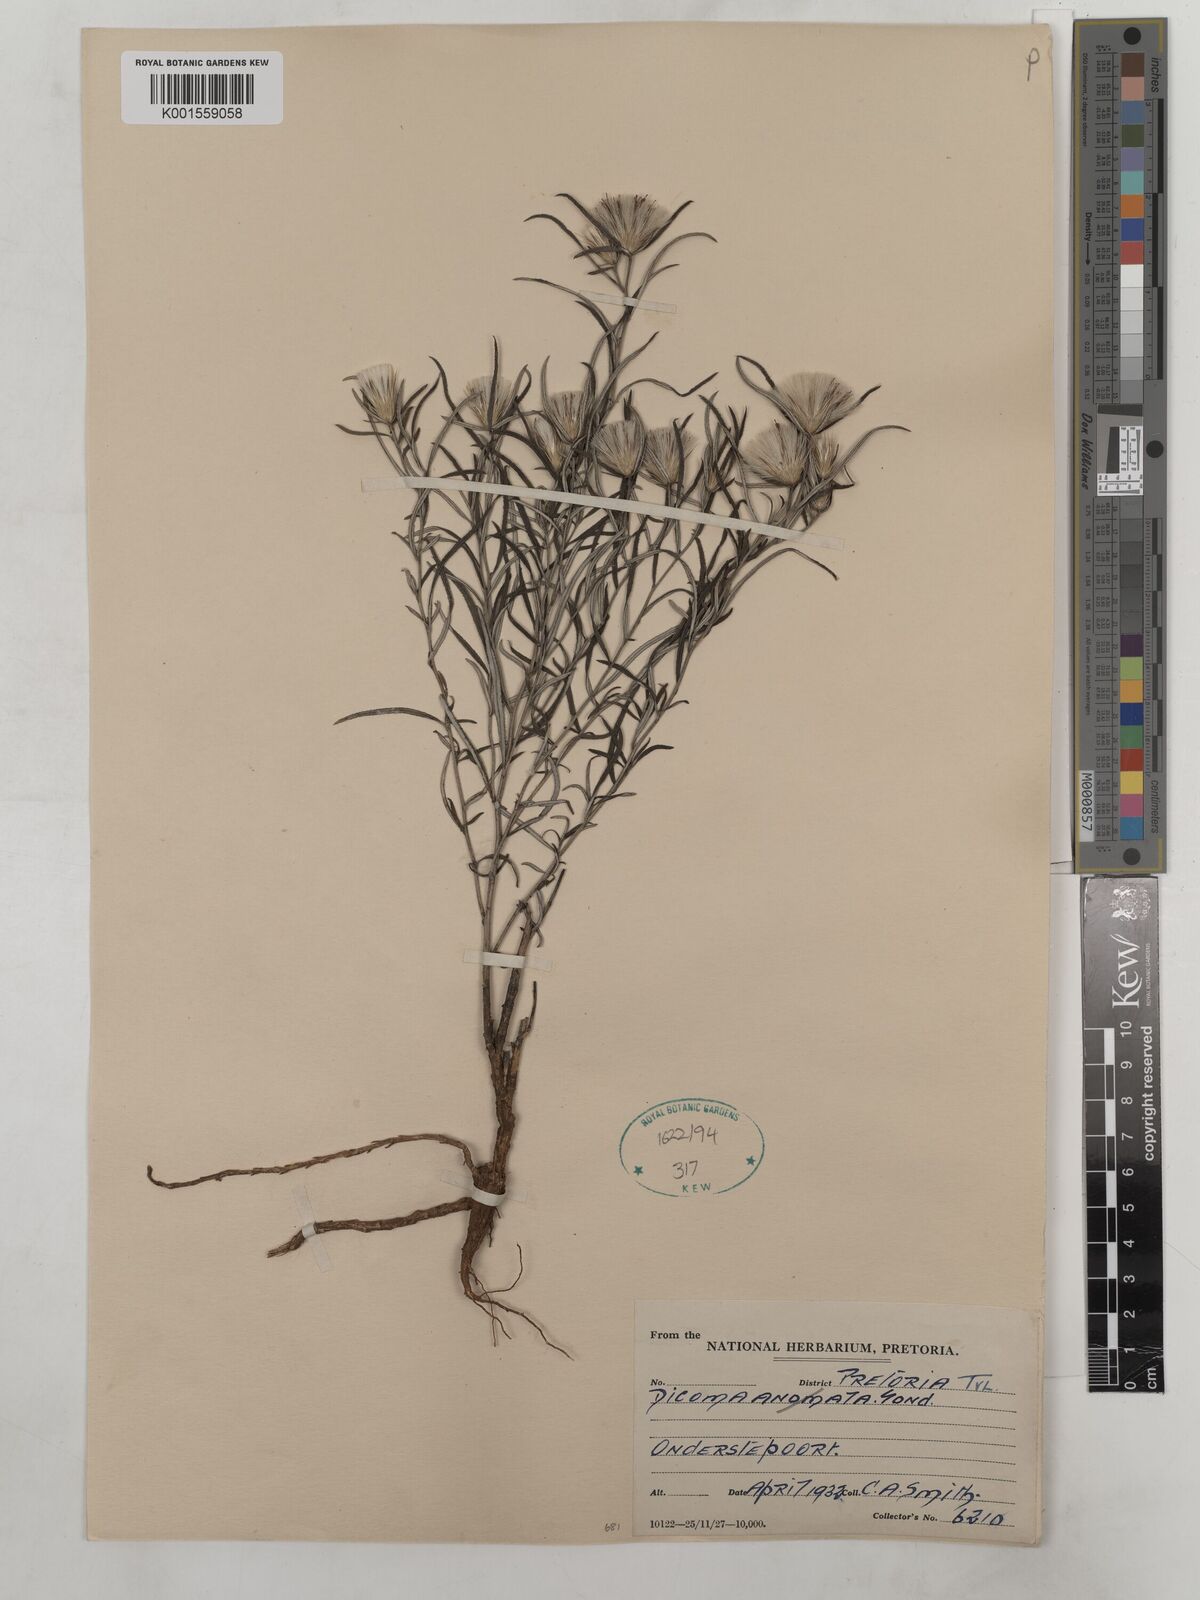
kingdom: Plantae
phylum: Tracheophyta
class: Magnoliopsida
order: Asterales
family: Asteraceae
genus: Dicoma
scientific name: Dicoma anomala
